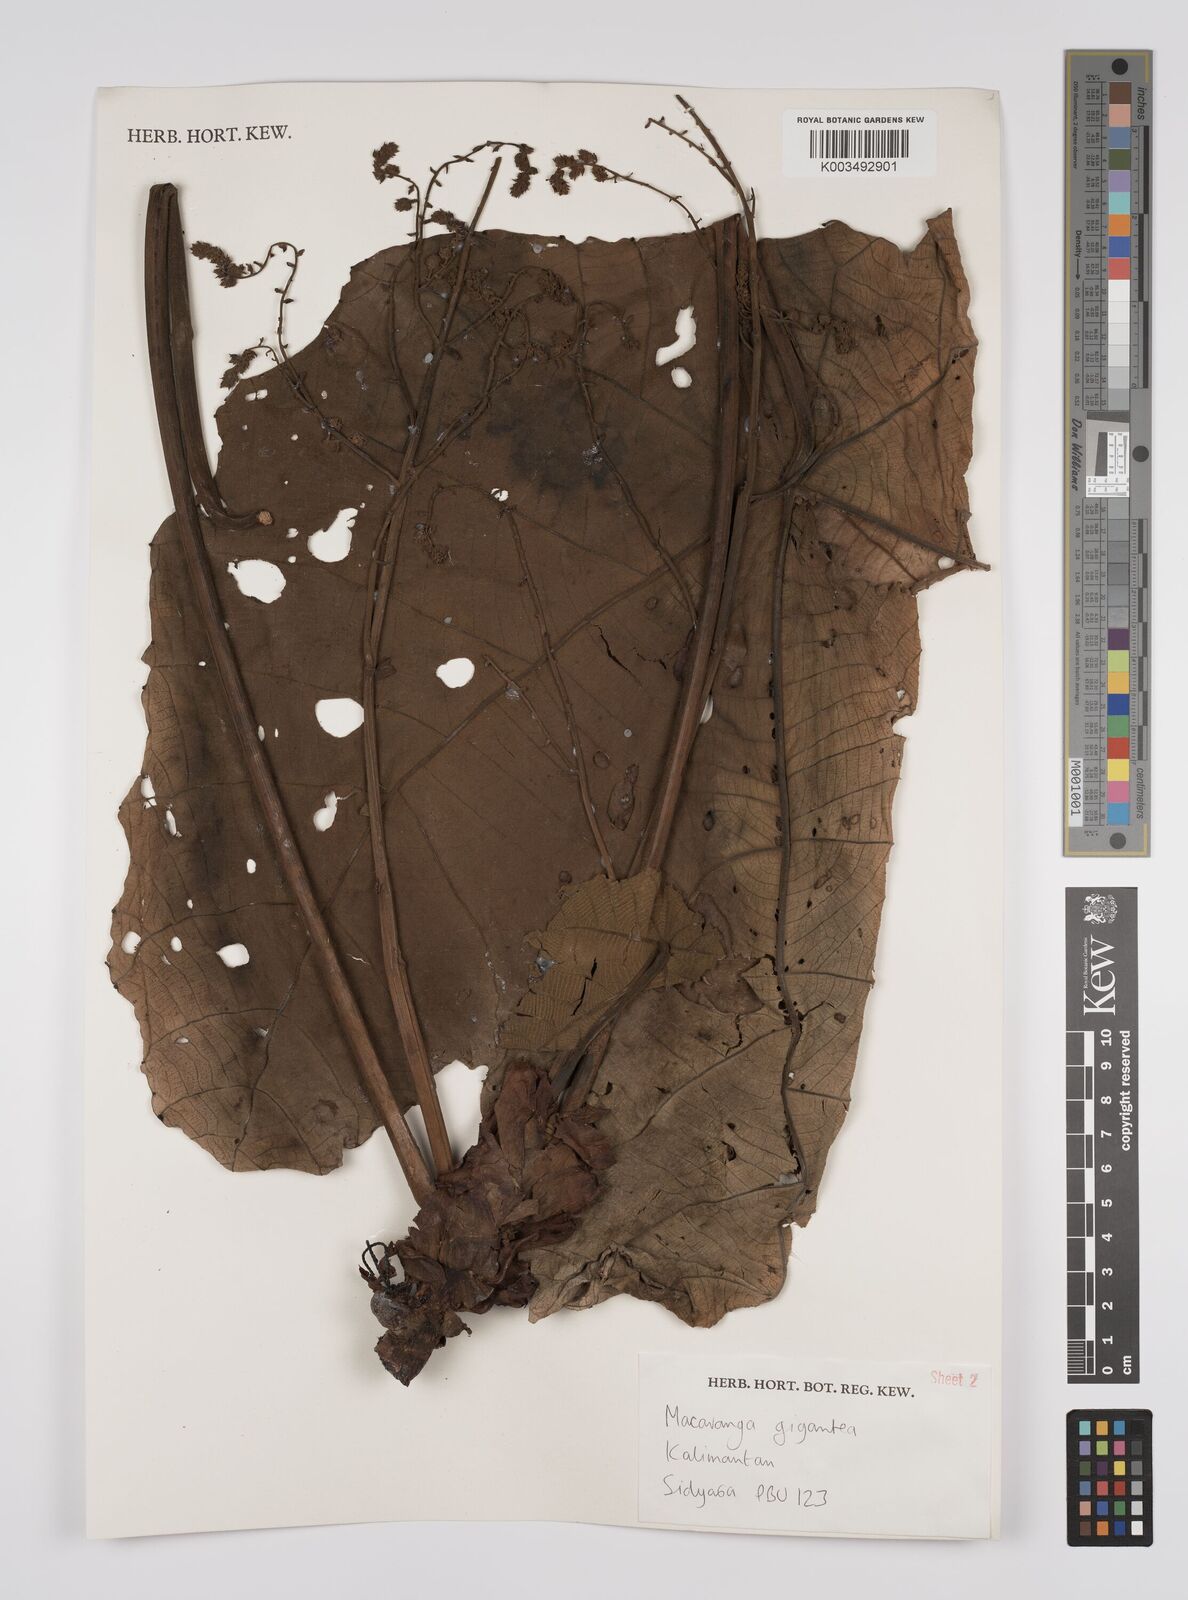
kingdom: Plantae
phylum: Tracheophyta
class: Magnoliopsida
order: Malpighiales
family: Euphorbiaceae
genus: Macaranga
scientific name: Macaranga gigantea
